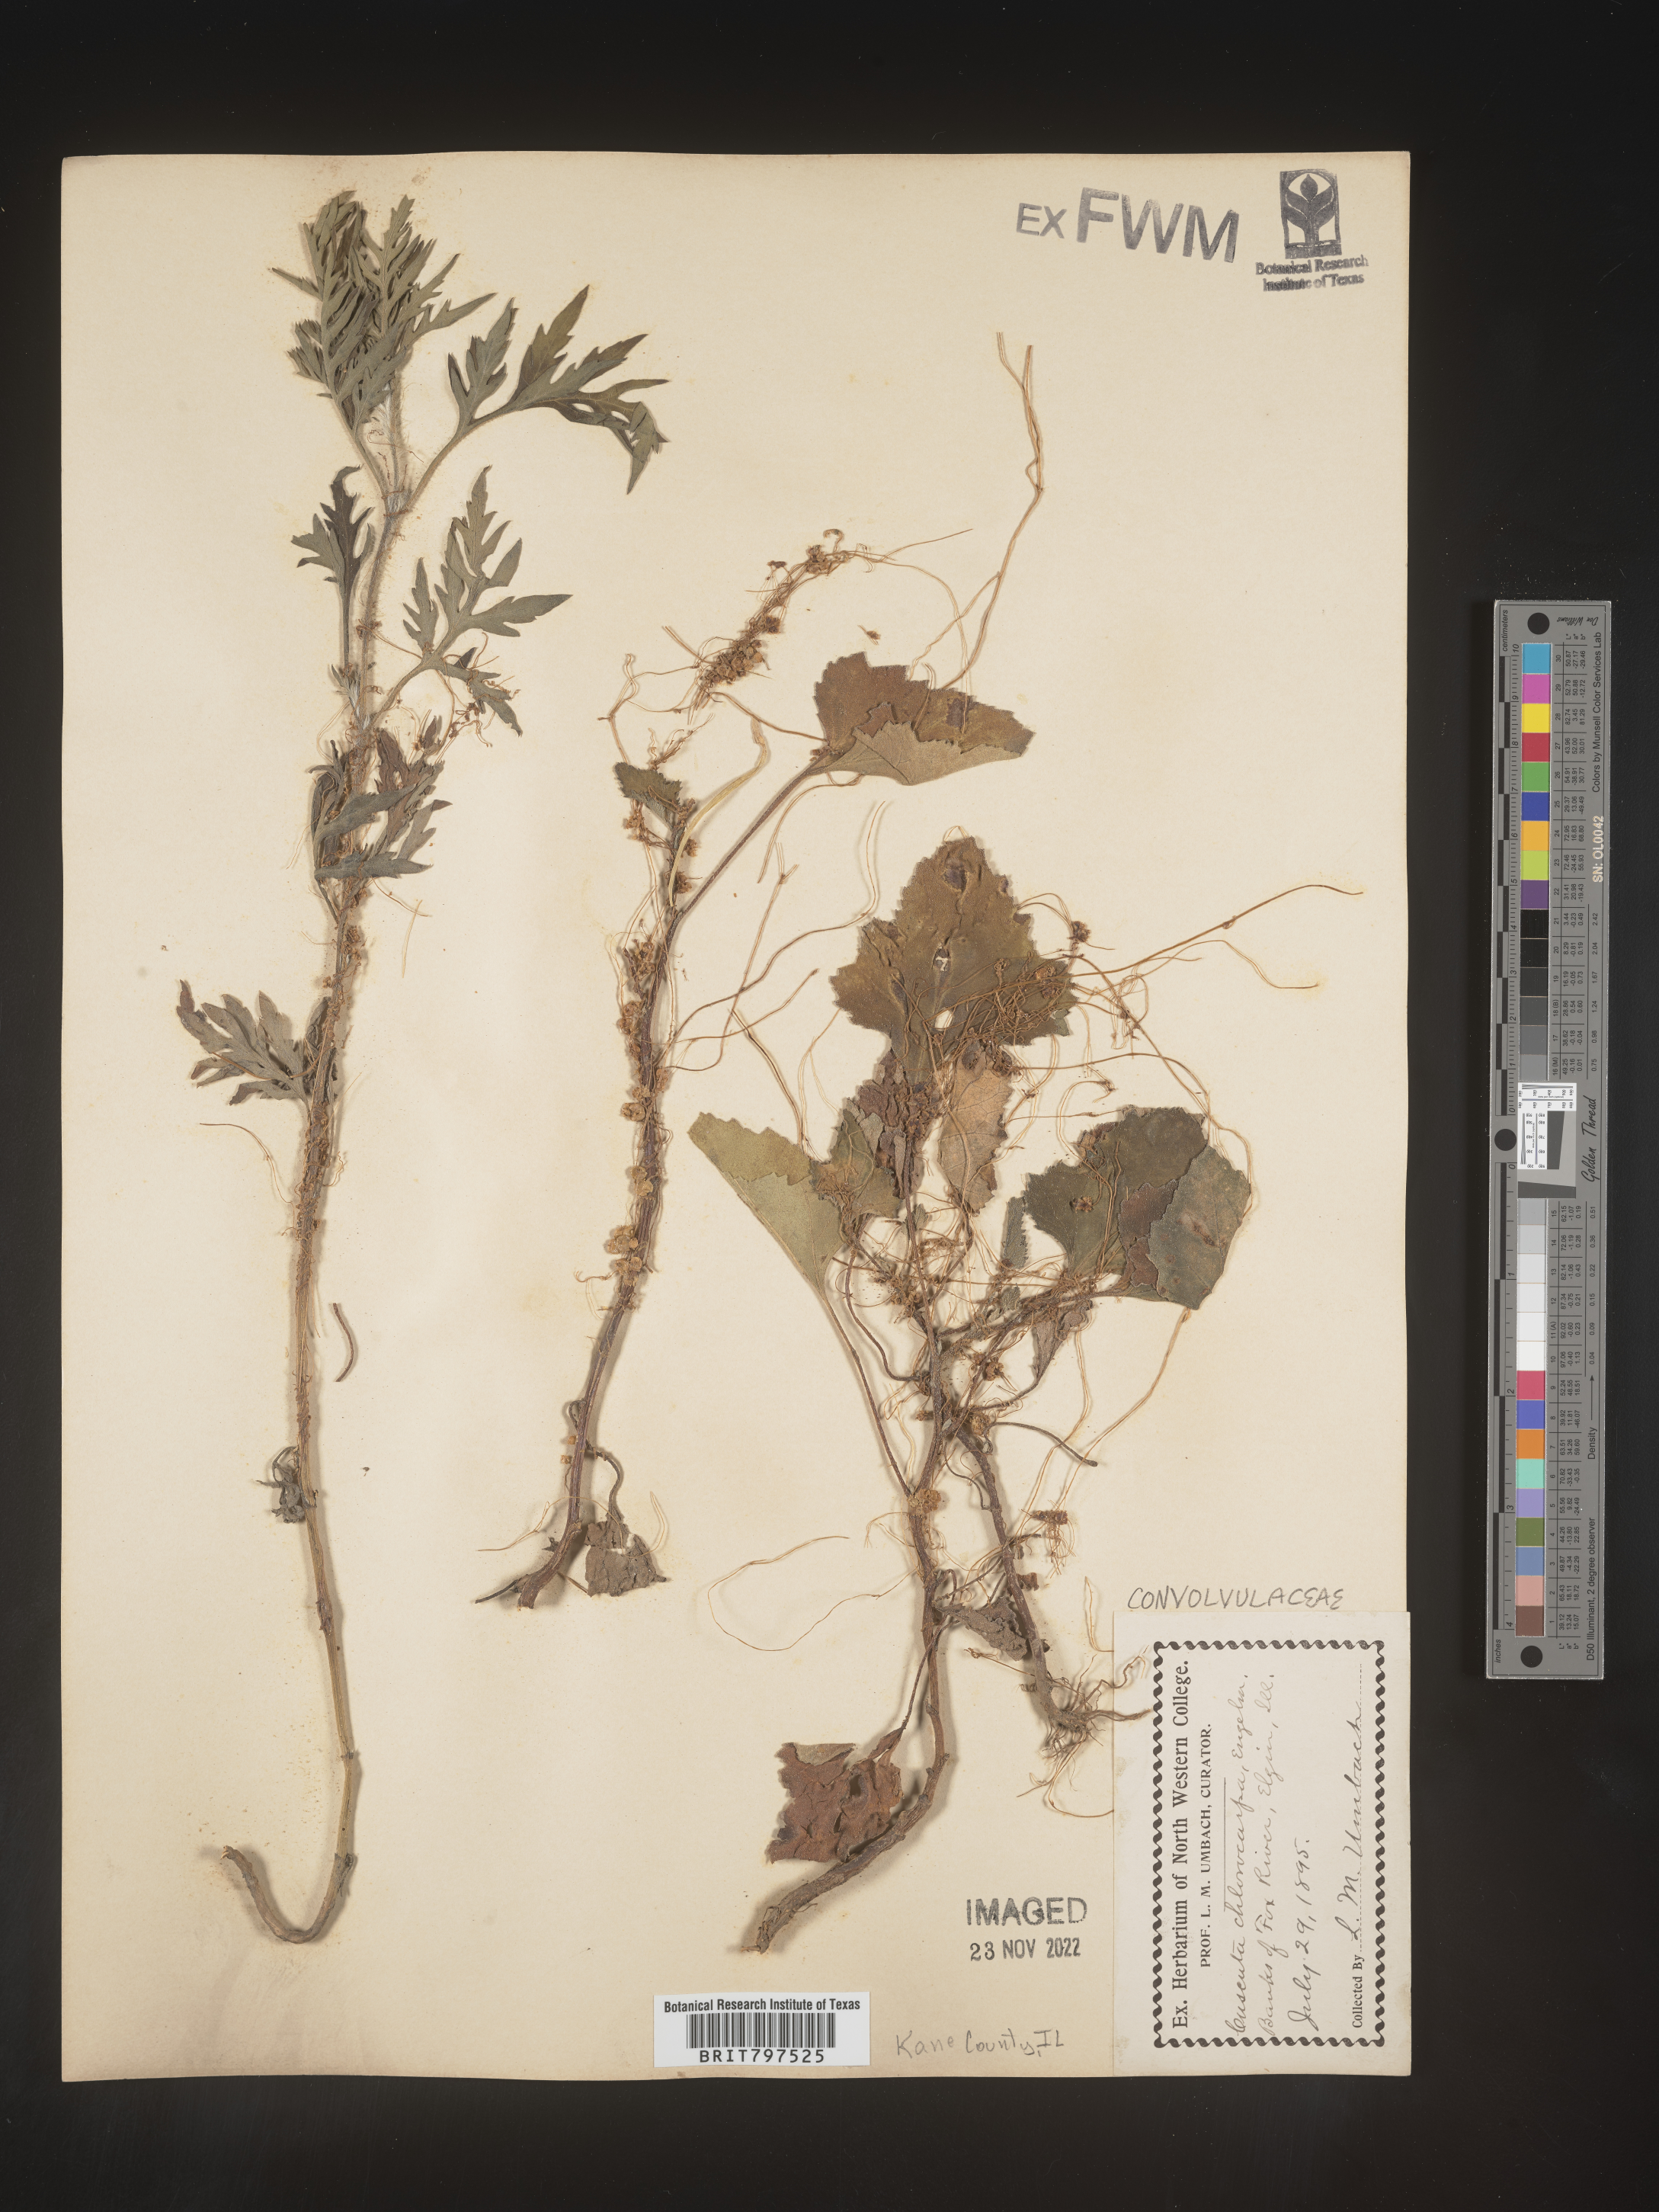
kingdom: Plantae
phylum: Tracheophyta
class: Magnoliopsida
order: Solanales
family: Convolvulaceae
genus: Cuscuta
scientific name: Cuscuta
